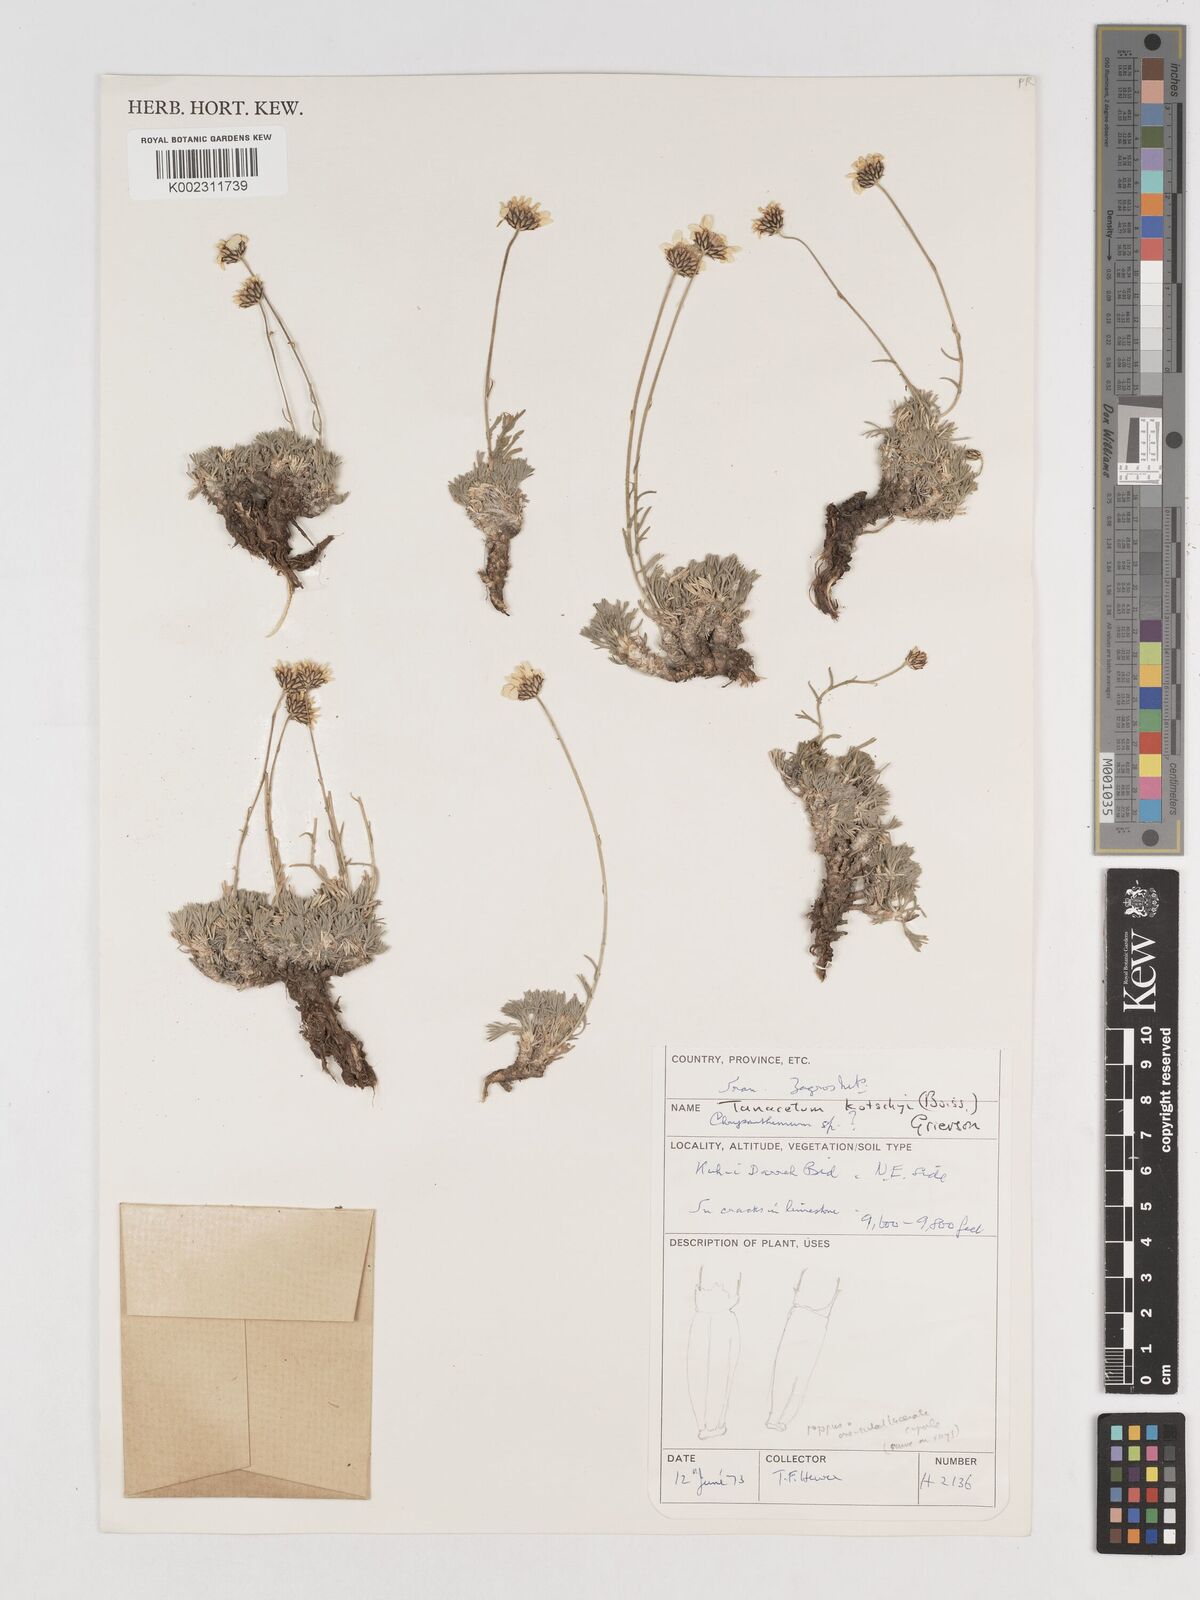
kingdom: Plantae
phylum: Tracheophyta
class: Magnoliopsida
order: Asterales
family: Asteraceae
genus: Tanacetum
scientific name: Tanacetum polycephalum
